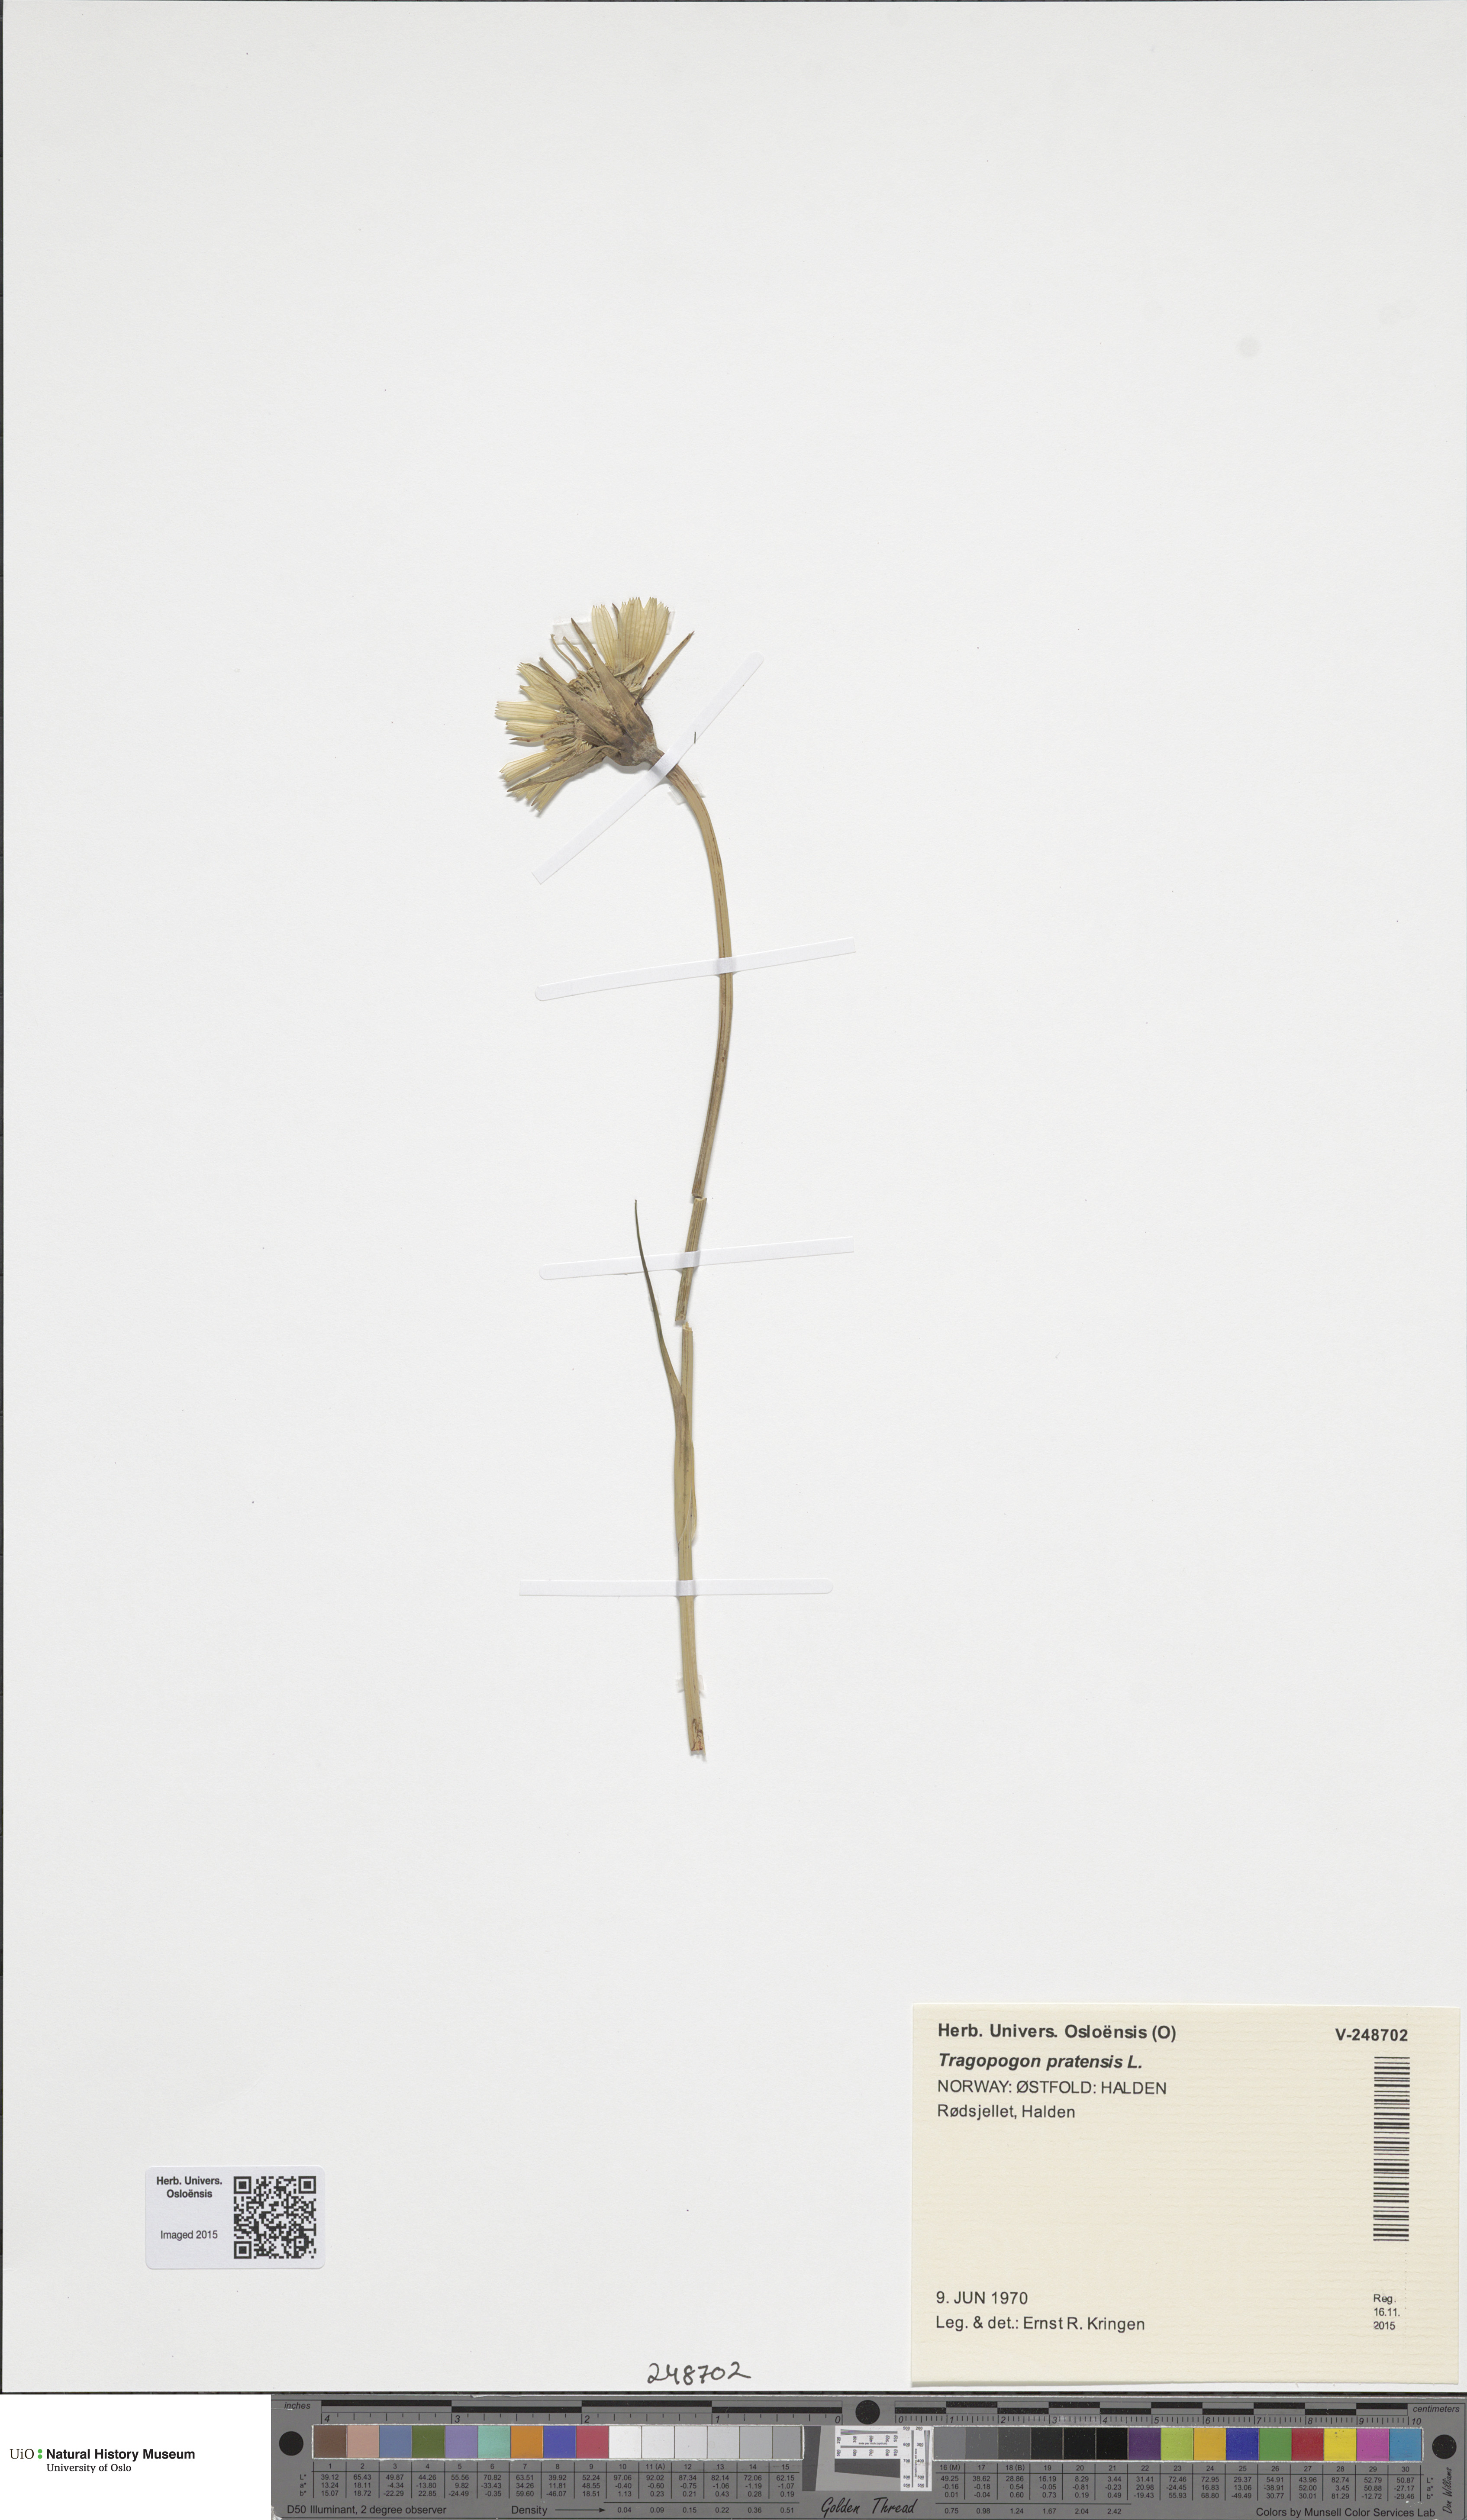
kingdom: Plantae
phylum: Tracheophyta
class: Magnoliopsida
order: Asterales
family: Asteraceae
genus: Tragopogon
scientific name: Tragopogon pratensis
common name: Goat's-beard
